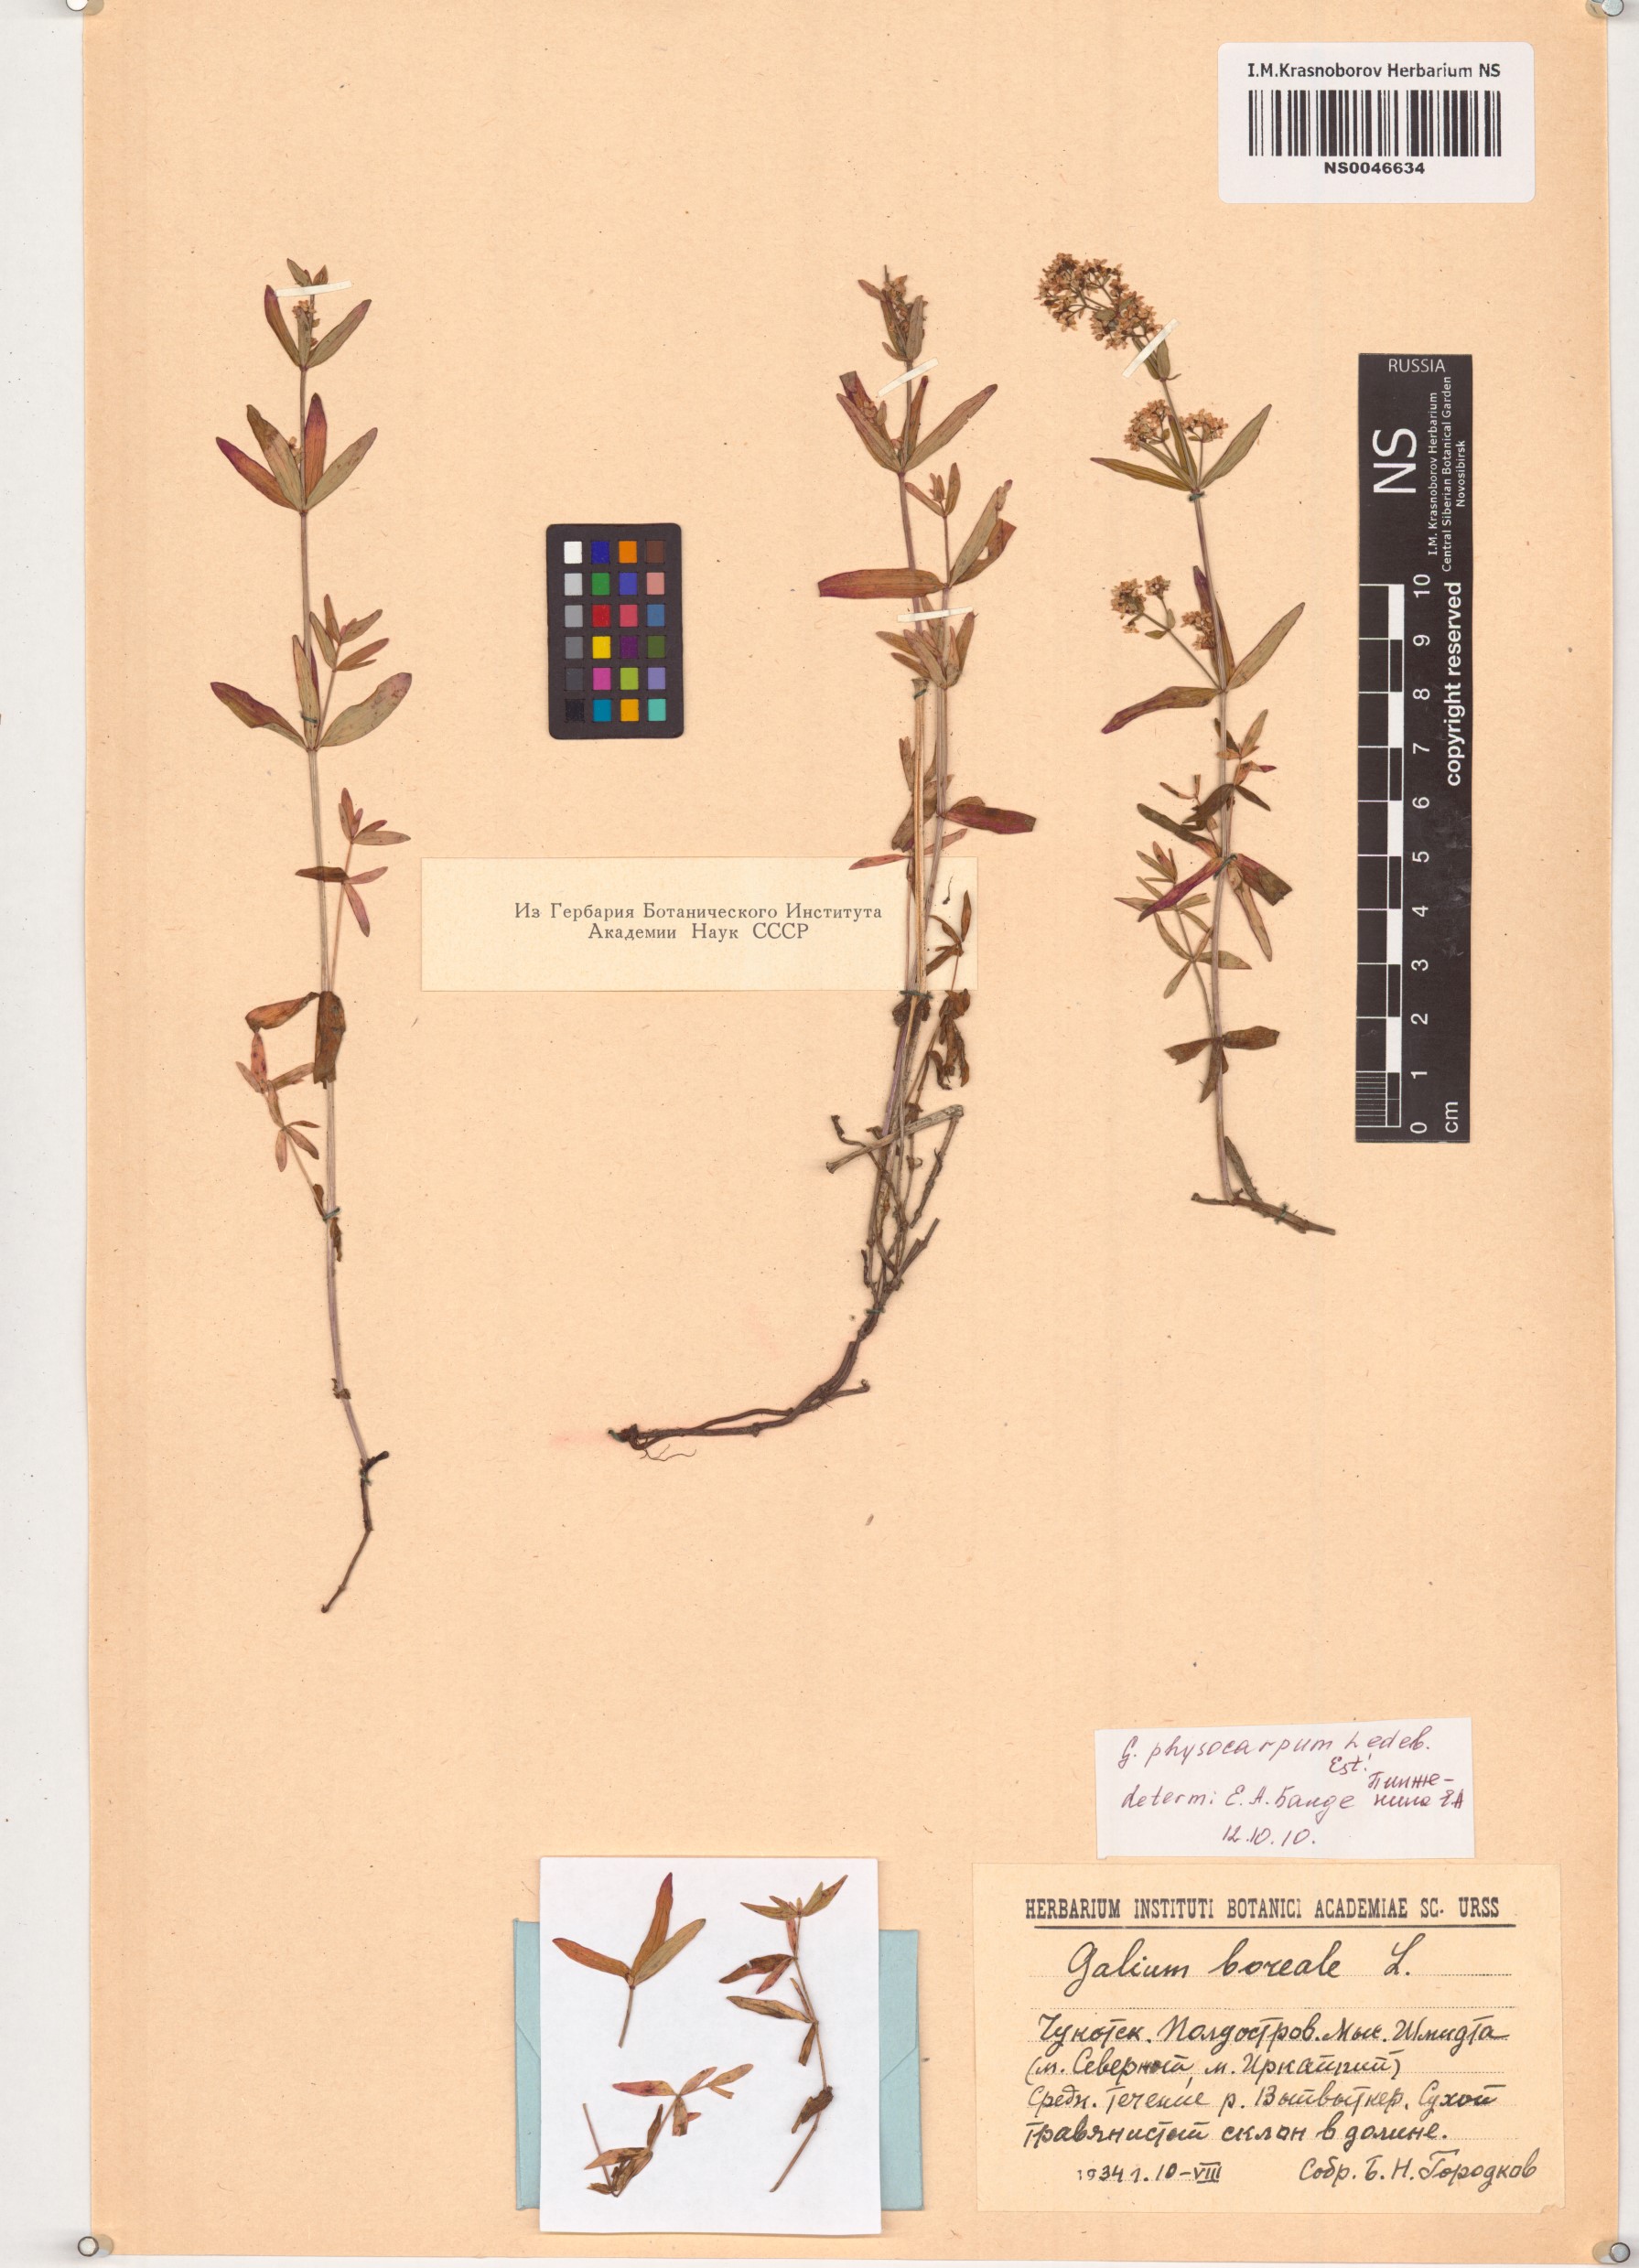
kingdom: Plantae
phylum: Tracheophyta
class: Magnoliopsida
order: Gentianales
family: Rubiaceae
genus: Galium
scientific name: Galium rubioides
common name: European bedstraw
